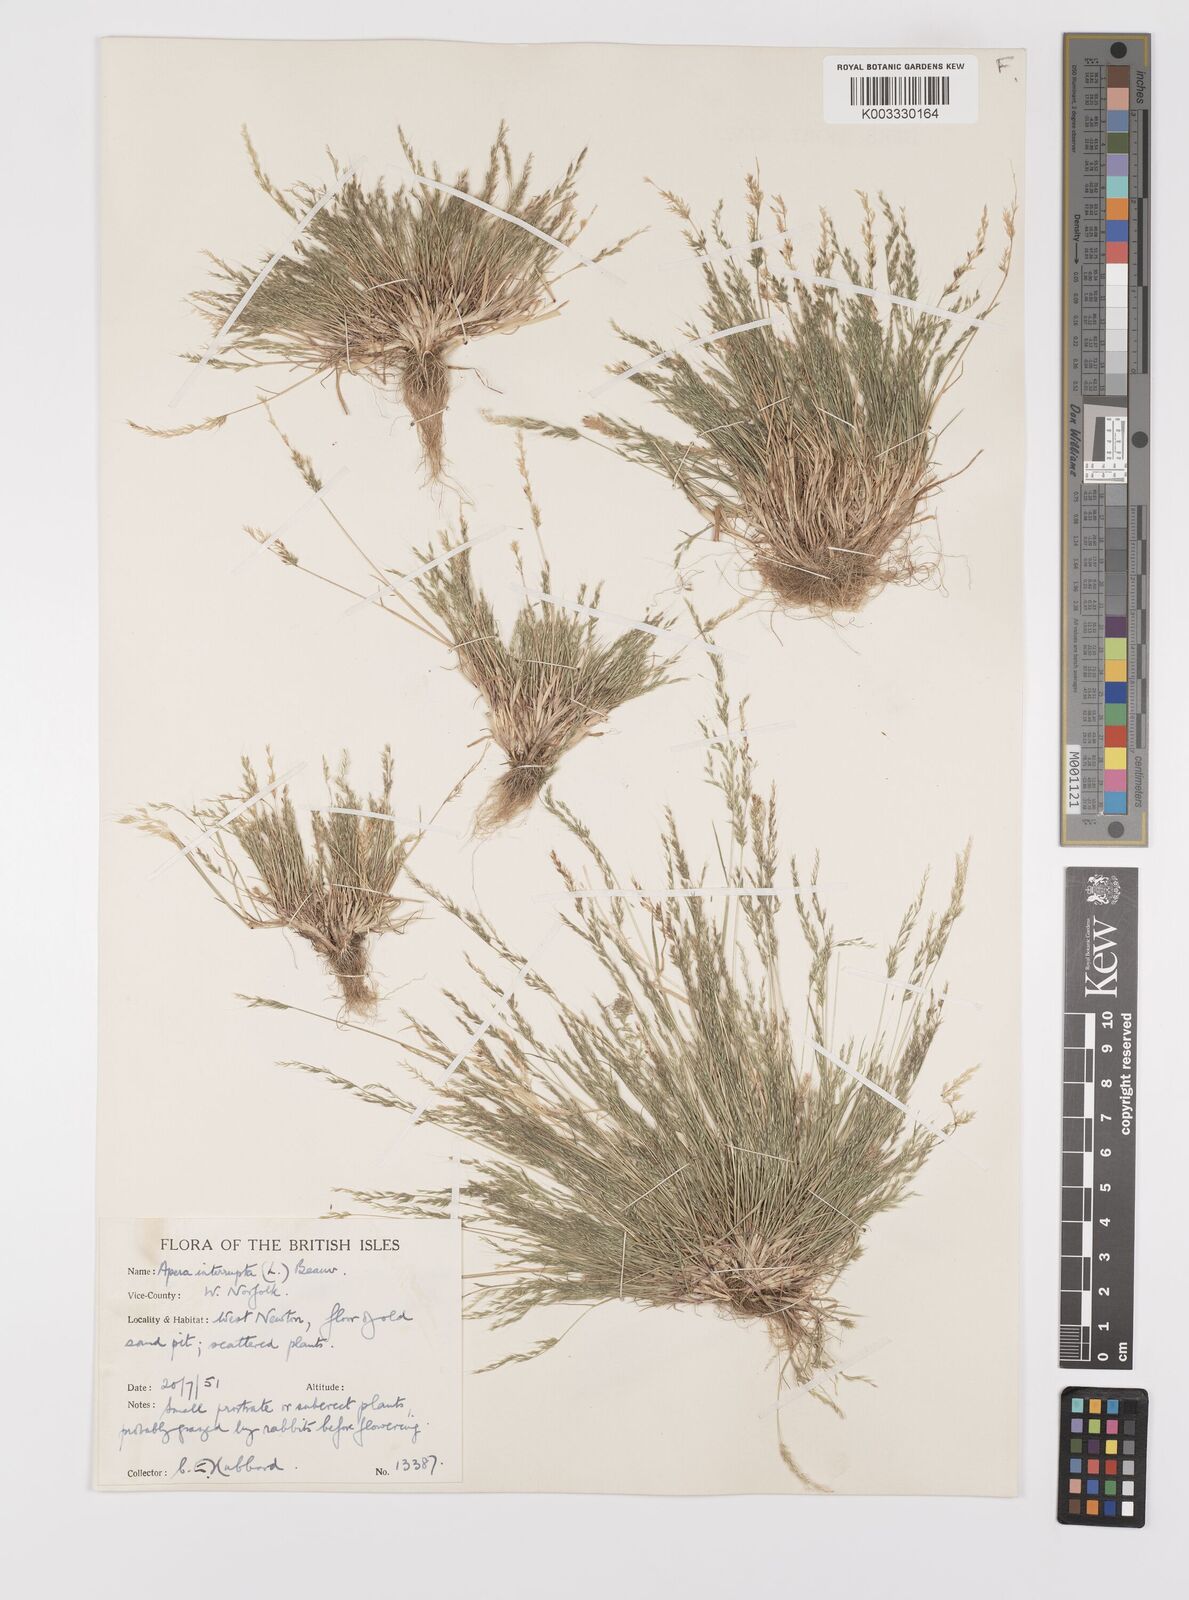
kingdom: Plantae
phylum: Tracheophyta
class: Liliopsida
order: Poales
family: Poaceae
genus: Apera
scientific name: Apera interrupta
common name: Dense silky-bent
